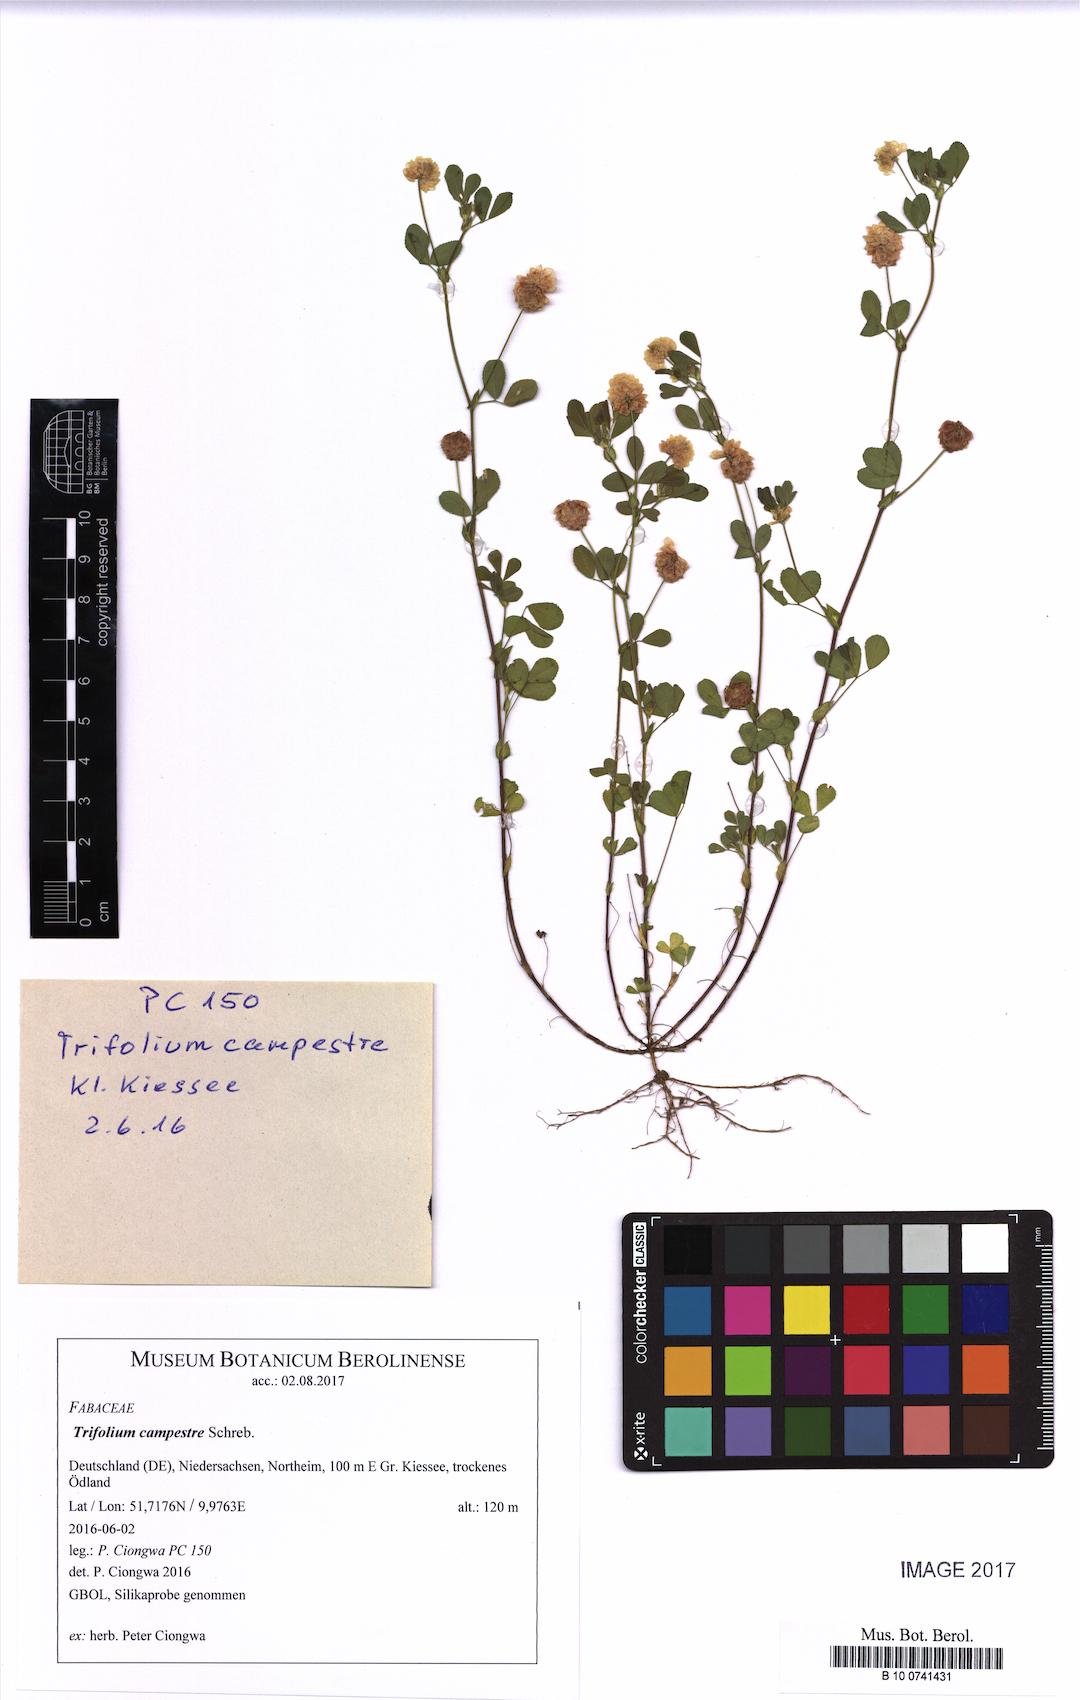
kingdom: Plantae
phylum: Tracheophyta
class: Magnoliopsida
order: Fabales
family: Fabaceae
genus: Trifolium
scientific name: Trifolium campestre
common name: Field clover
